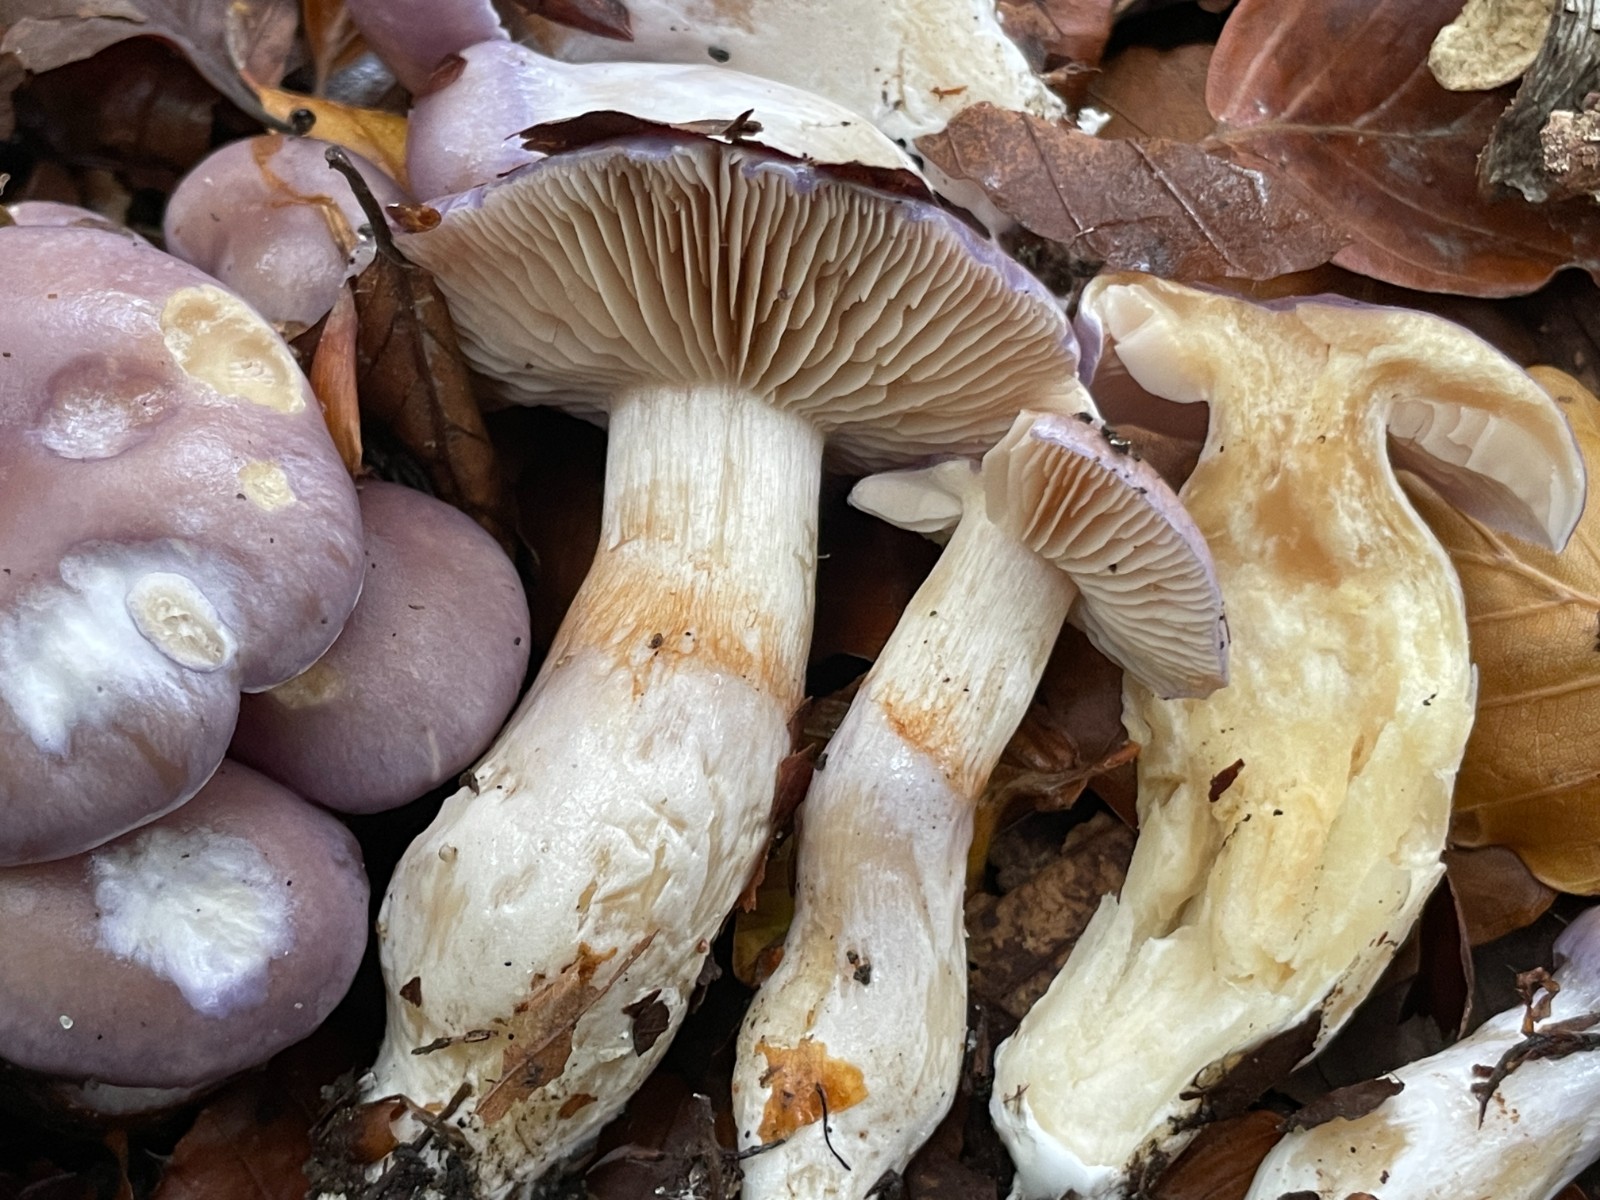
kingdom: Fungi
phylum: Basidiomycota
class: Agaricomycetes
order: Agaricales
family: Cortinariaceae
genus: Thaxterogaster
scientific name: Thaxterogaster croceocoeruleus
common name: blågullig slørhat
